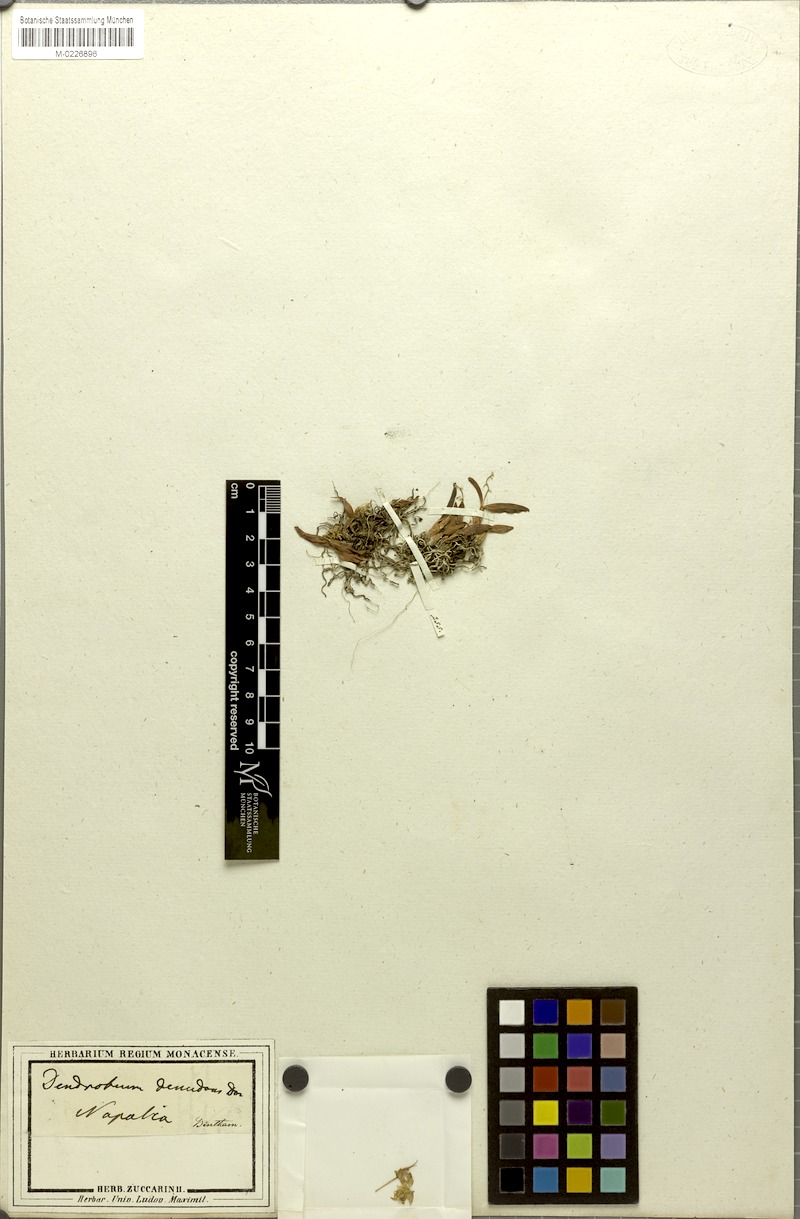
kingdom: Plantae
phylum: Tracheophyta
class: Liliopsida
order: Asparagales
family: Orchidaceae
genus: Dendrobium
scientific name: Dendrobium denudans
